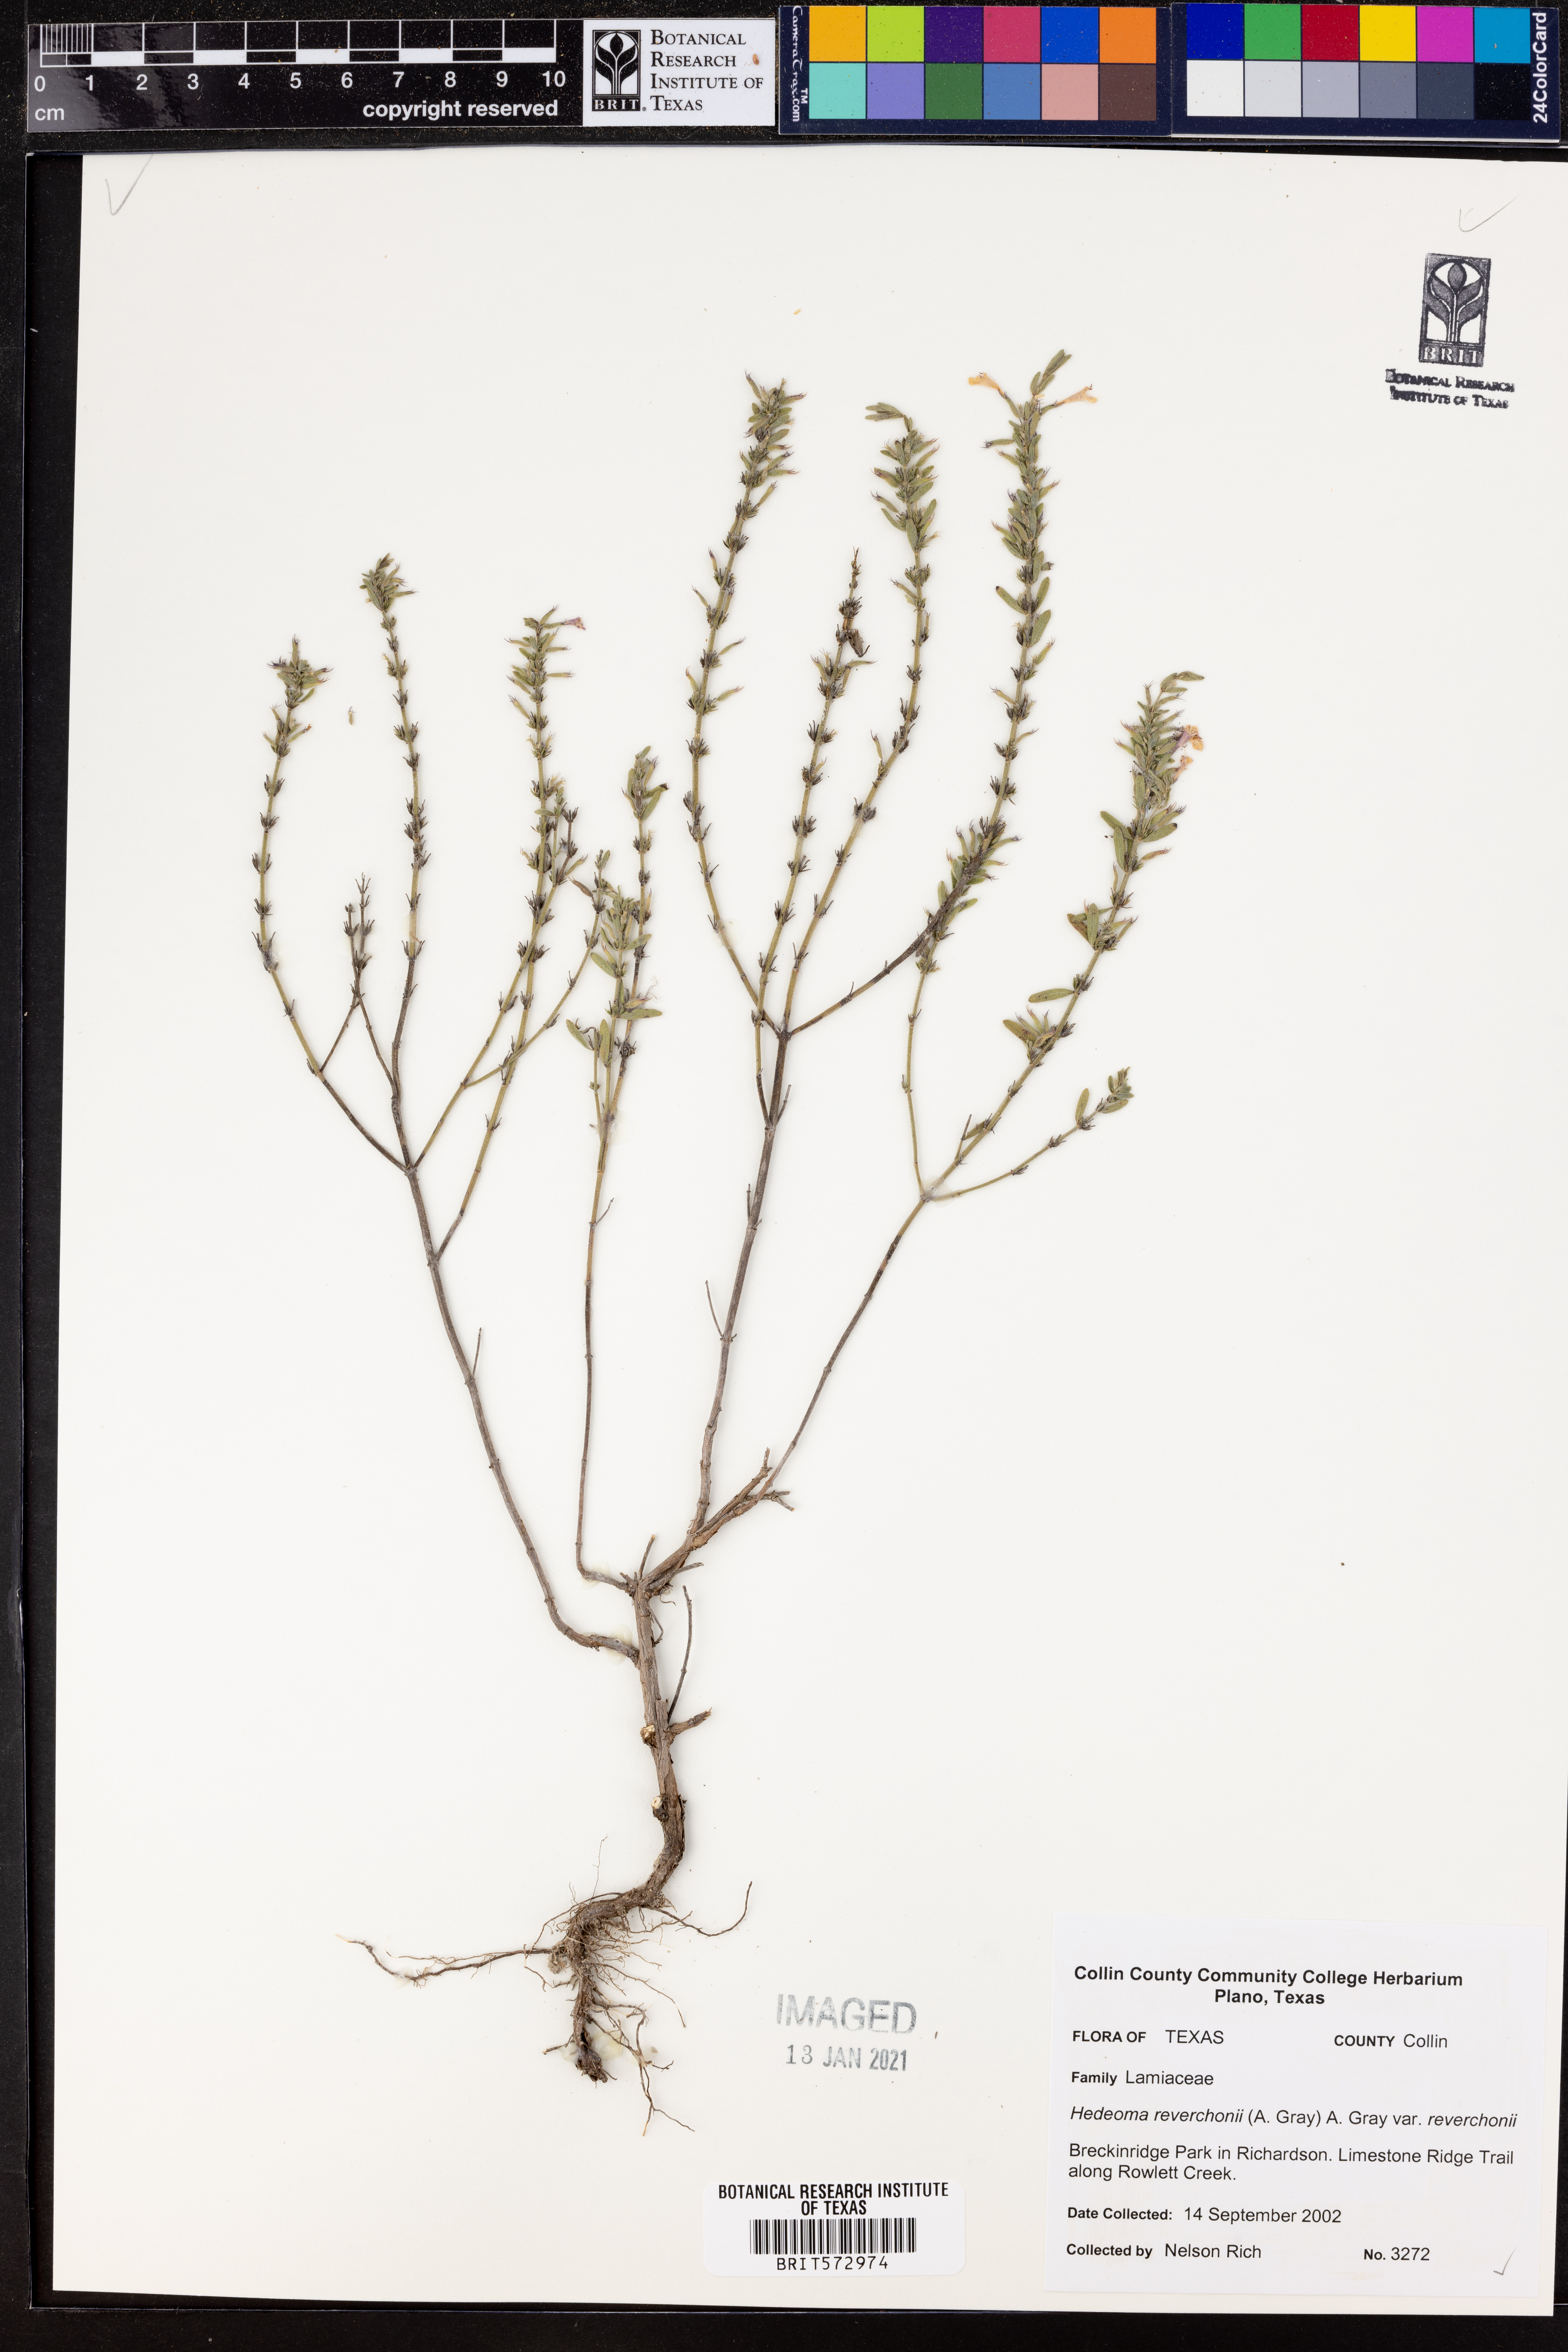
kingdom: Plantae
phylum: Tracheophyta
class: Magnoliopsida
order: Lamiales
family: Lamiaceae
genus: Hedeoma
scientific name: Hedeoma reverchonii
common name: Reverchon's false penny-royal
